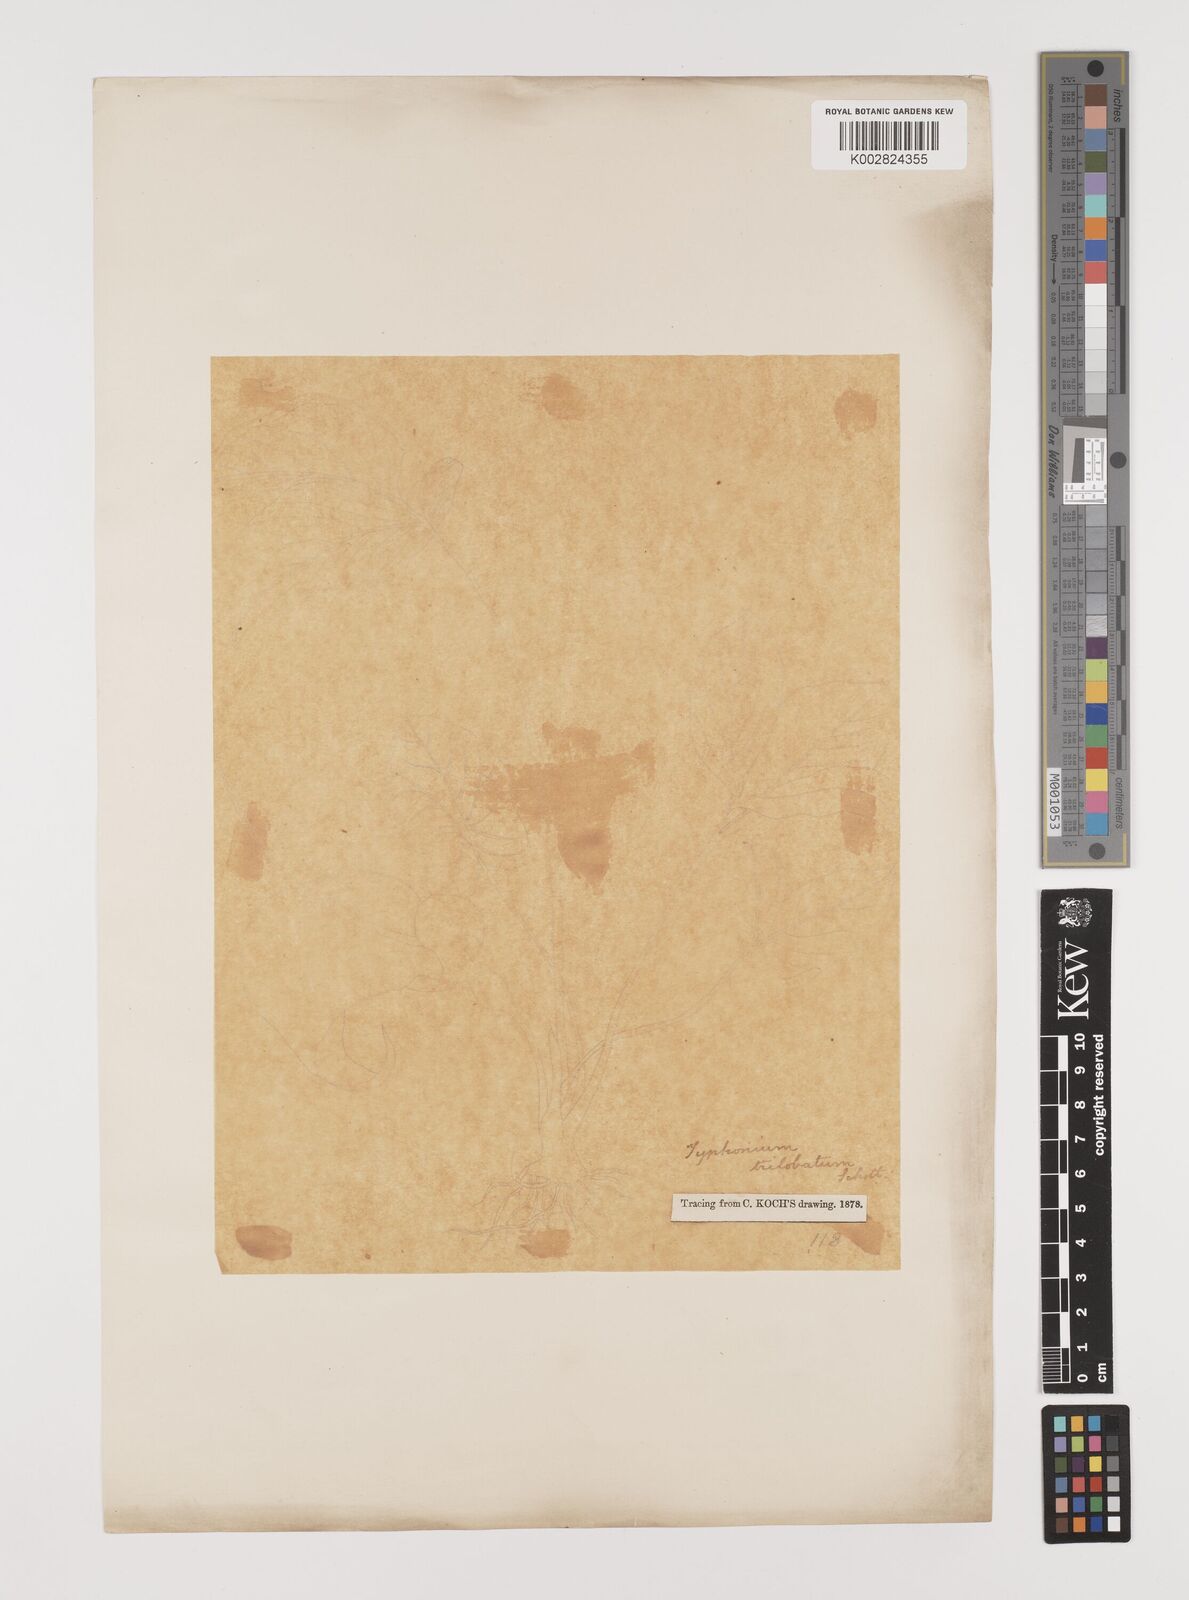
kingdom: Plantae
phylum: Tracheophyta
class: Liliopsida
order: Alismatales
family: Araceae
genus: Typhonium
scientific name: Typhonium trilobatum
